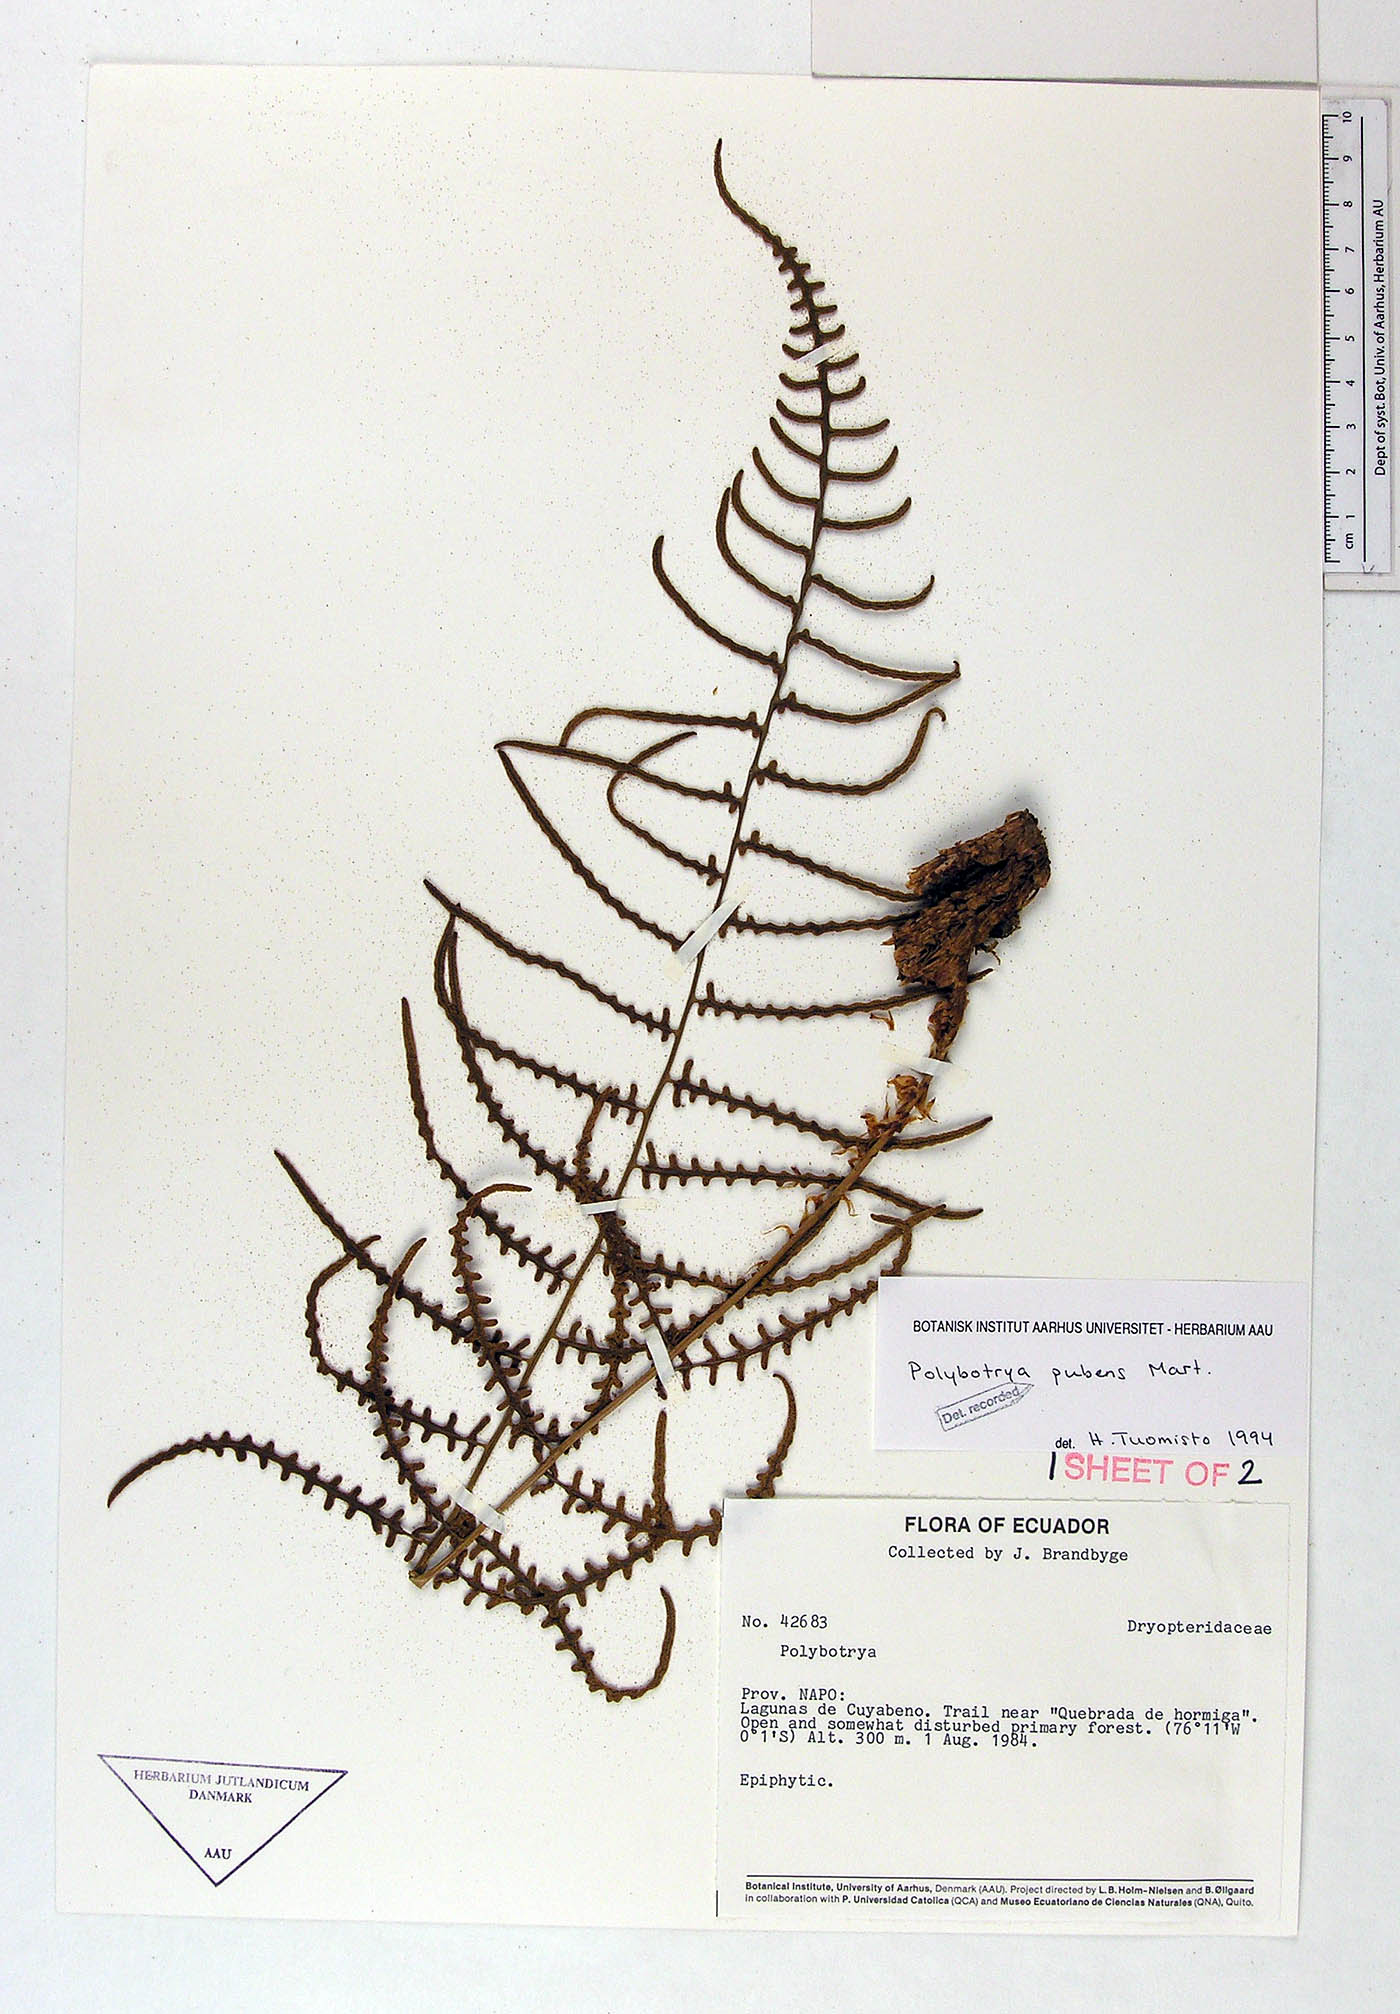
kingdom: Plantae
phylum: Tracheophyta
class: Polypodiopsida
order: Polypodiales
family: Dryopteridaceae
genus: Polybotrya
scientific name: Polybotrya pubens
